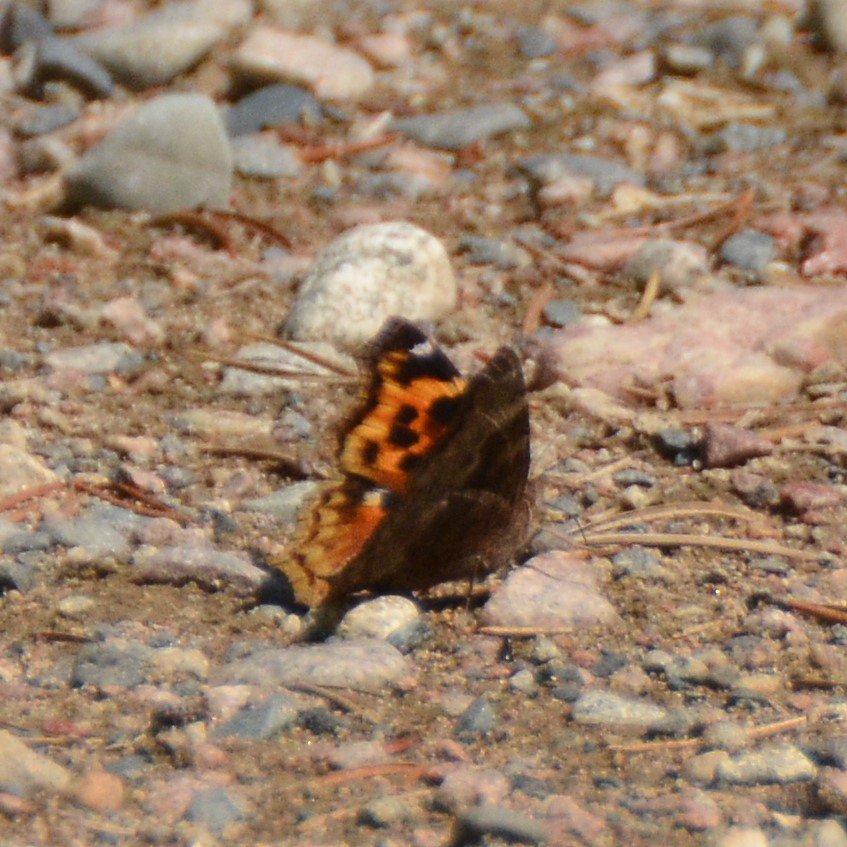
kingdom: Animalia
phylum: Arthropoda
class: Insecta
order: Lepidoptera
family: Nymphalidae
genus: Polygonia
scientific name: Polygonia vaualbum
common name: Compton Tortoiseshell
